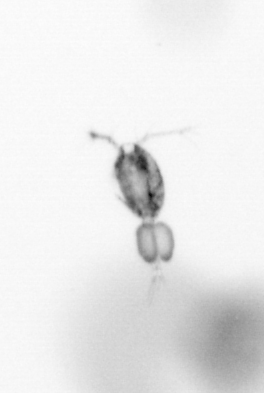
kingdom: Animalia
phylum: Arthropoda
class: Copepoda
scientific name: Copepoda
